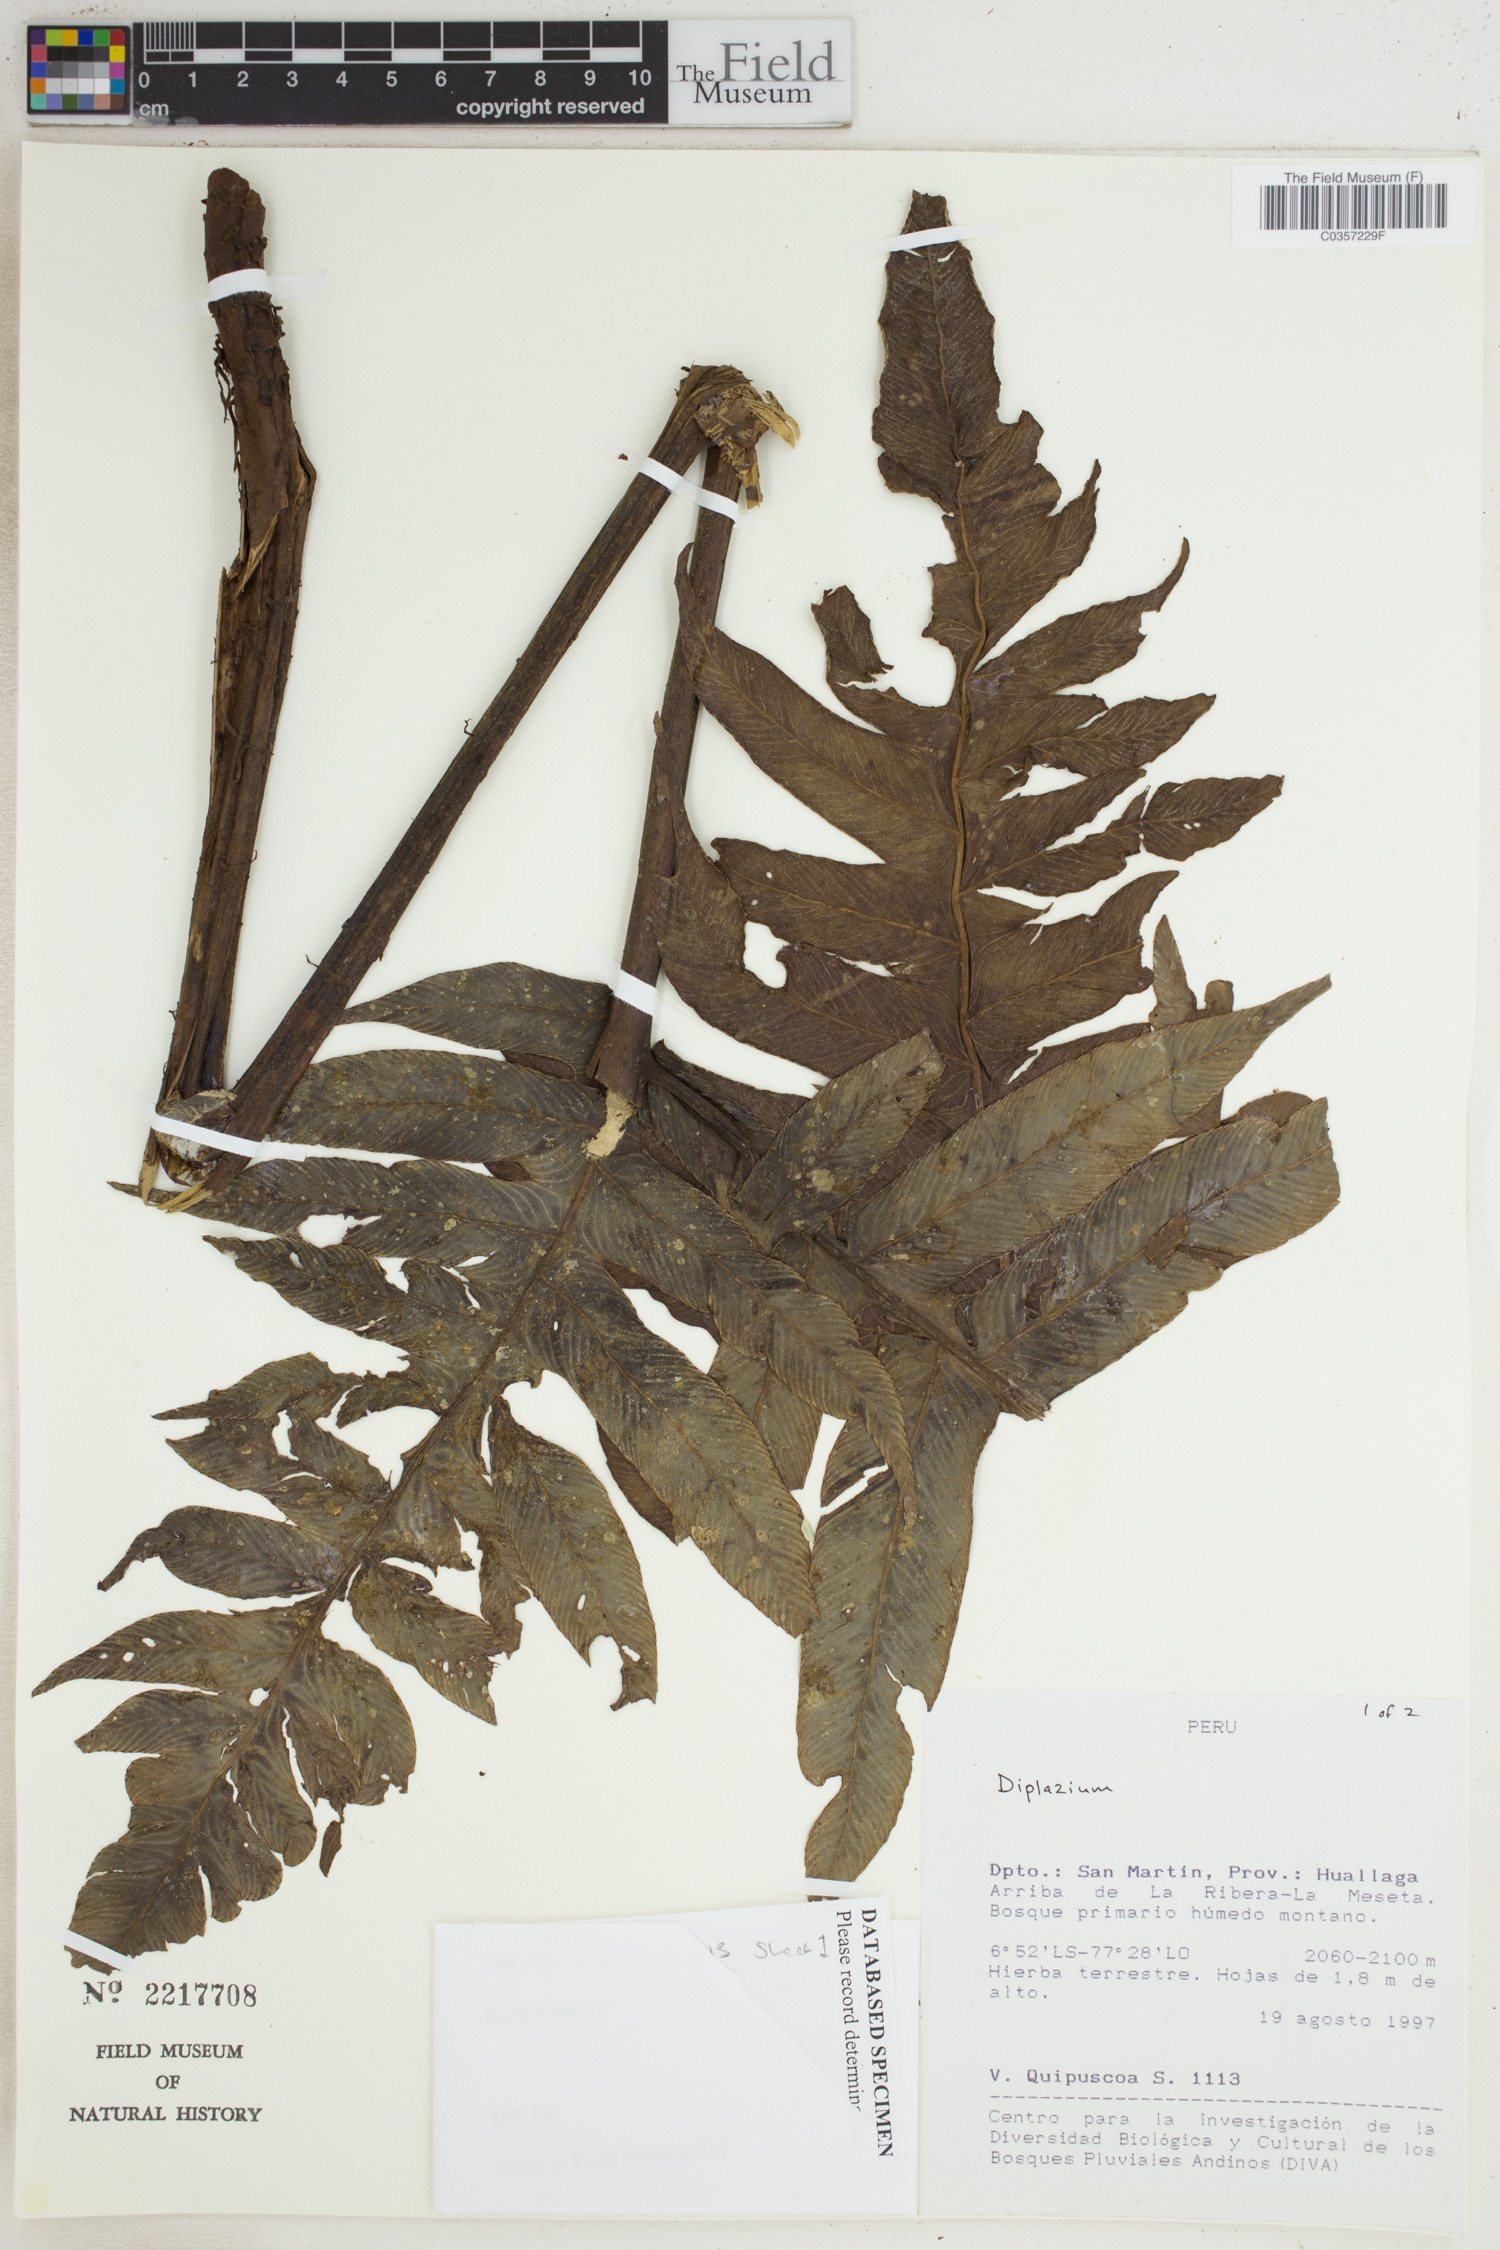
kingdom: Plantae
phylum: Tracheophyta
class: Polypodiopsida
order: Polypodiales
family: Athyriaceae
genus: Diplazium
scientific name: Diplazium
